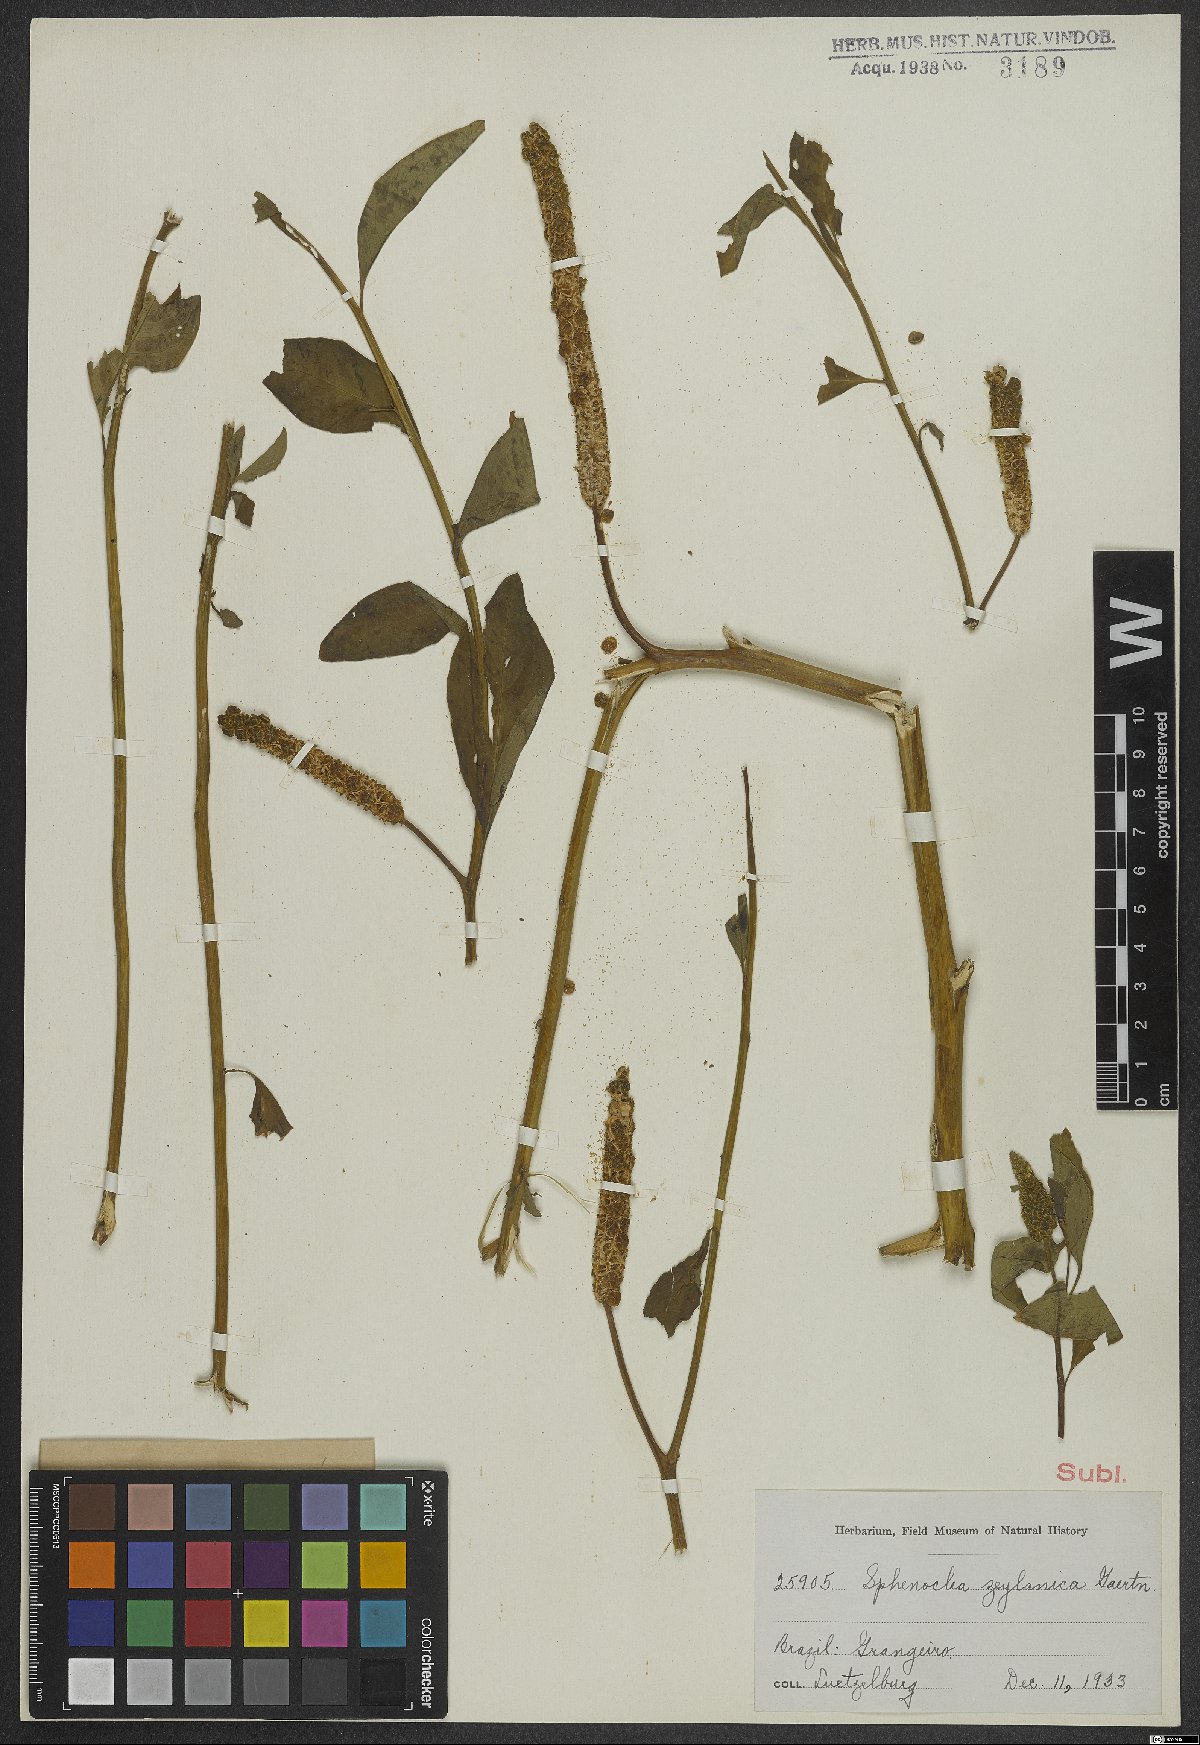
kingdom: Plantae
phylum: Tracheophyta
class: Magnoliopsida
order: Solanales
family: Sphenocleaceae
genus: Sphenoclea
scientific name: Sphenoclea zeylanica
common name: Chickenspike
